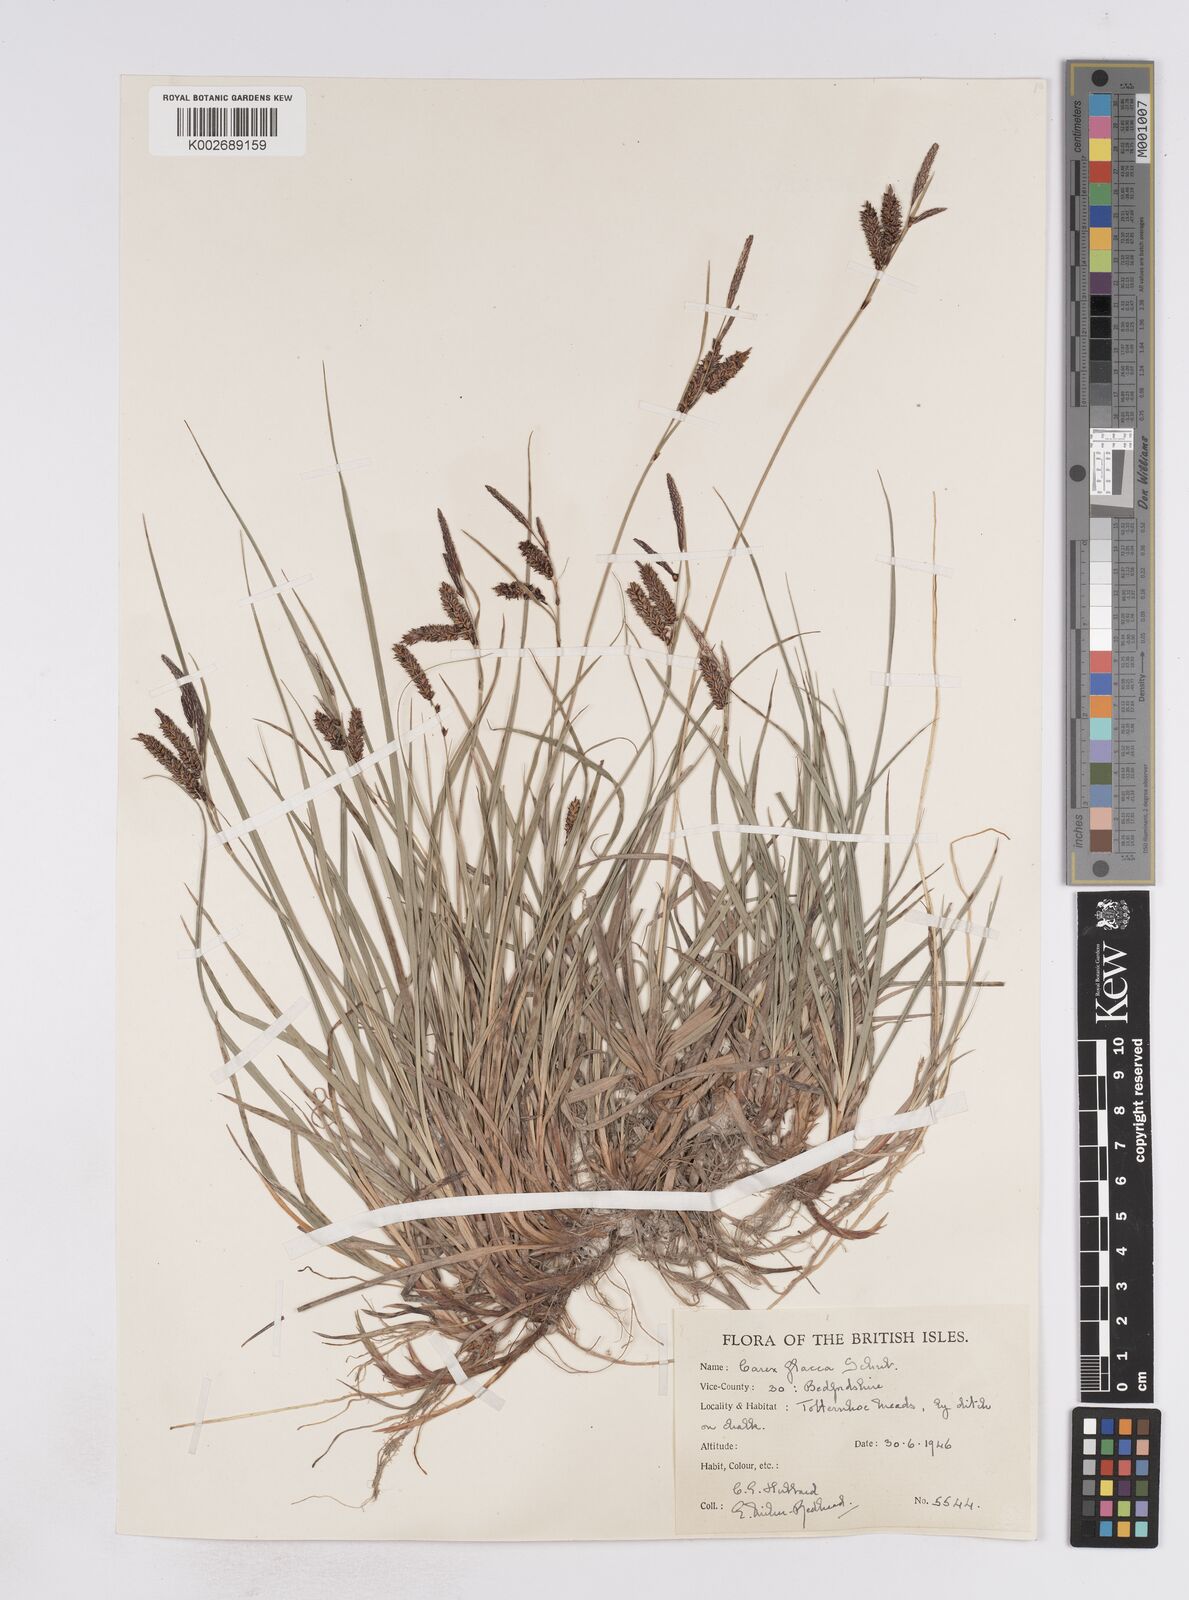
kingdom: Plantae
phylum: Tracheophyta
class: Liliopsida
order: Poales
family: Cyperaceae
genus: Carex
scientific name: Carex flacca
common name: Glaucous sedge
